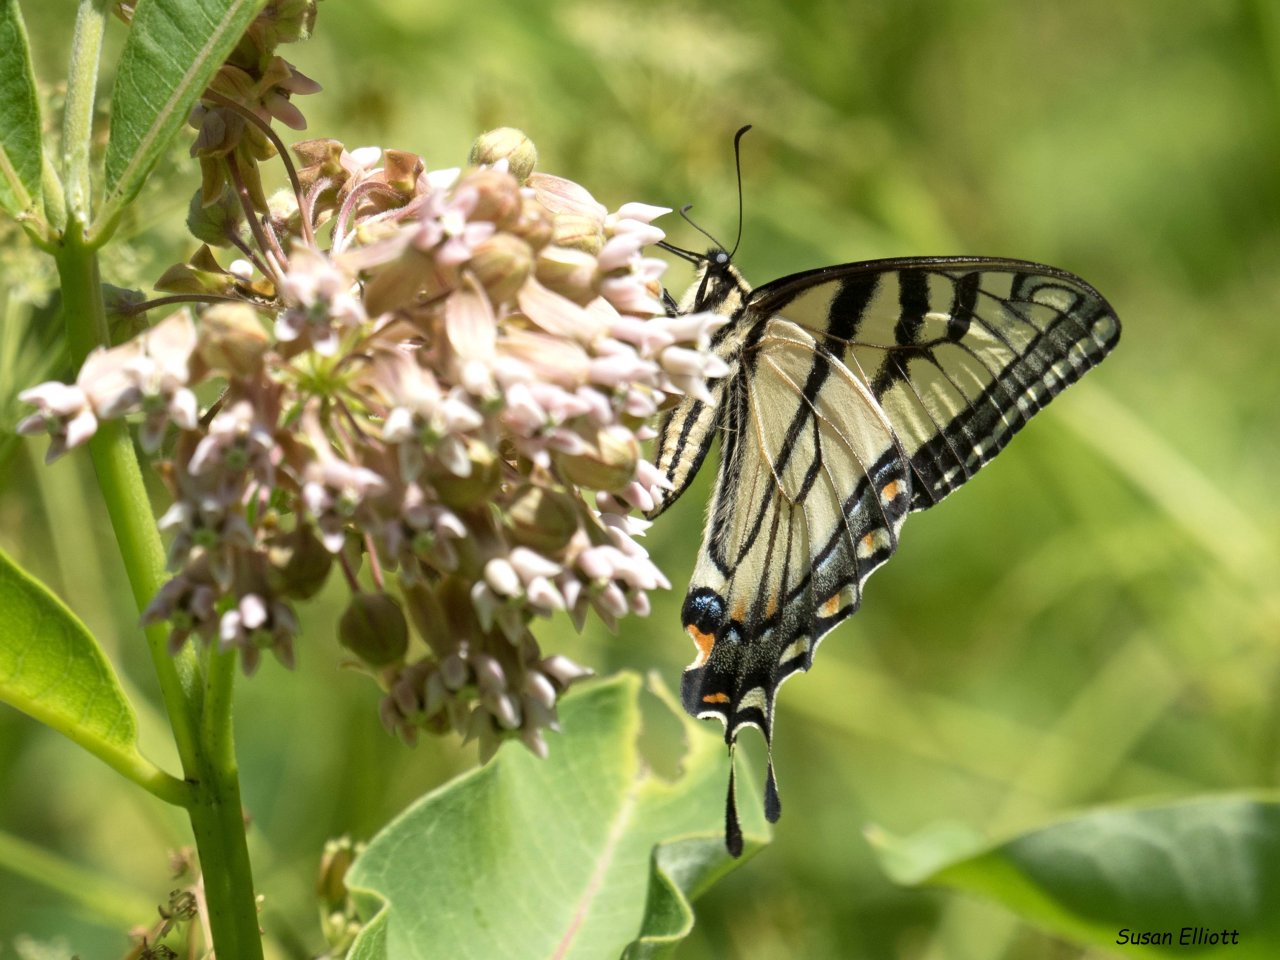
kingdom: Animalia
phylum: Arthropoda
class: Insecta
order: Lepidoptera
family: Papilionidae
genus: Pterourus
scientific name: Pterourus
